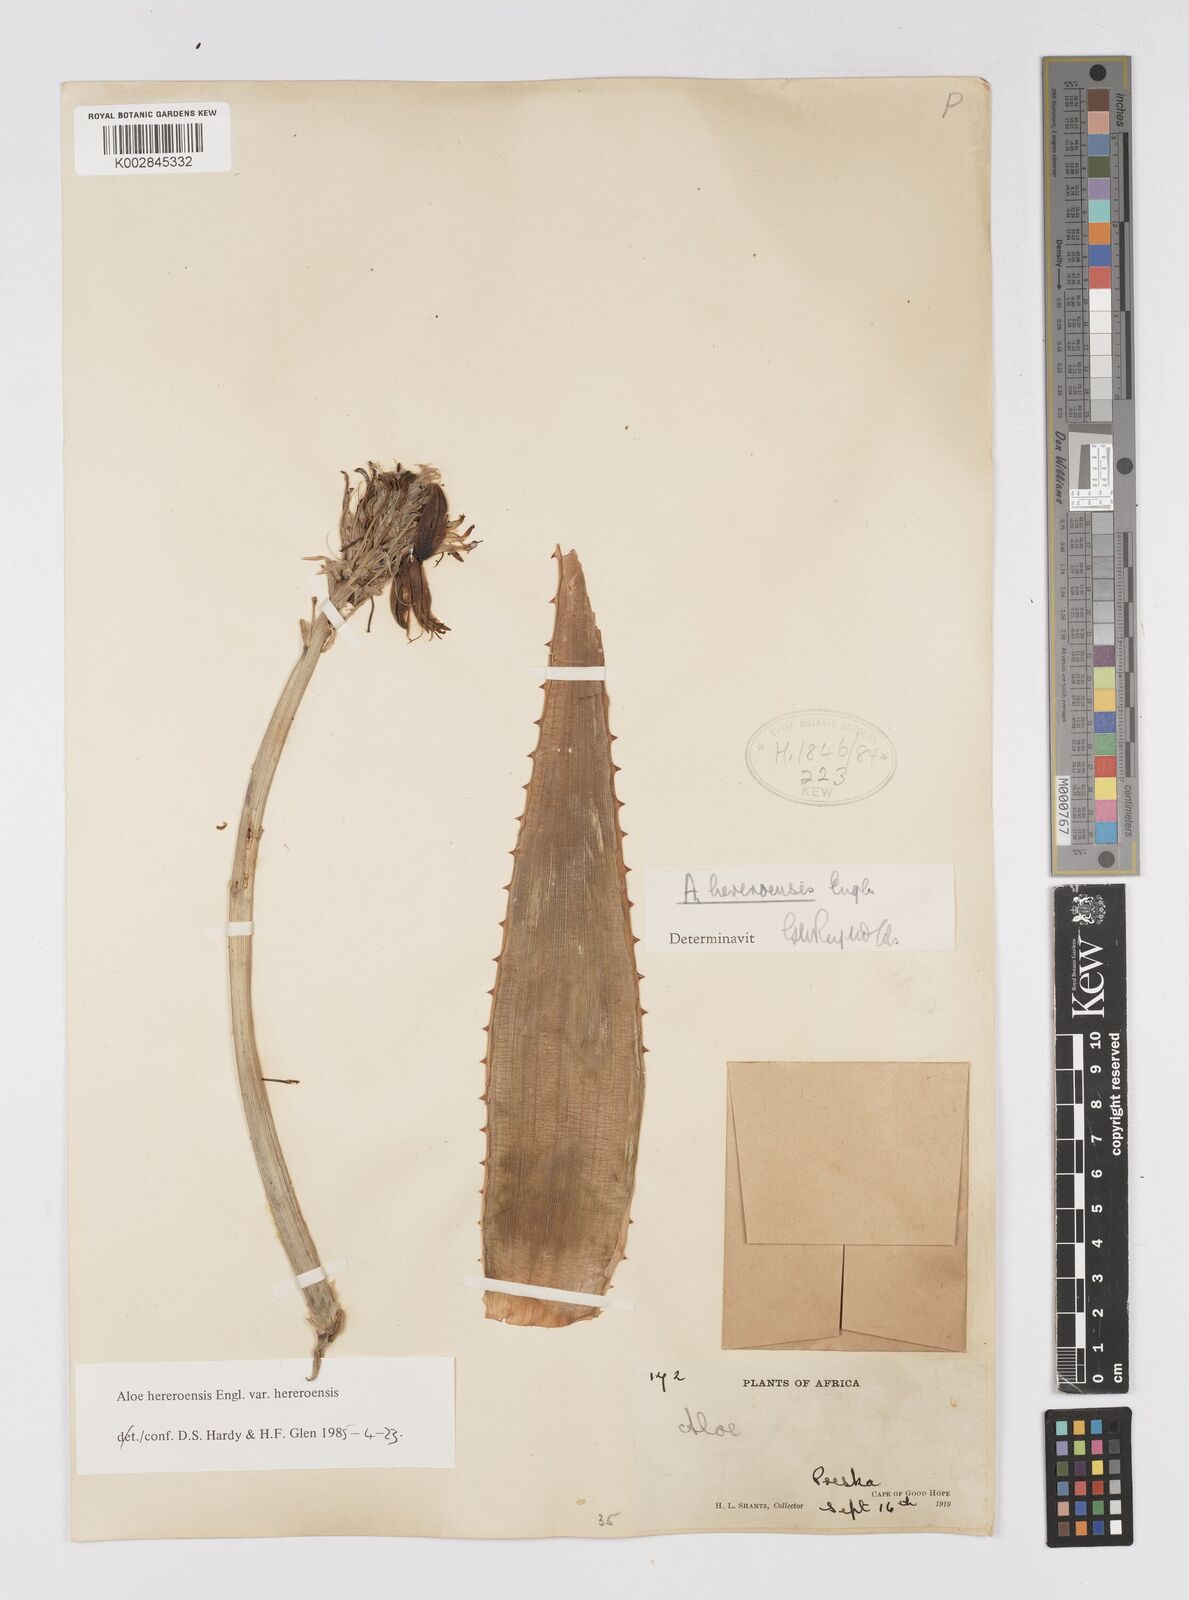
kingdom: Plantae
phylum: Tracheophyta
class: Liliopsida
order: Asparagales
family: Asphodelaceae
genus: Aloe
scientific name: Aloe hereroensis
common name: Herero aloe
